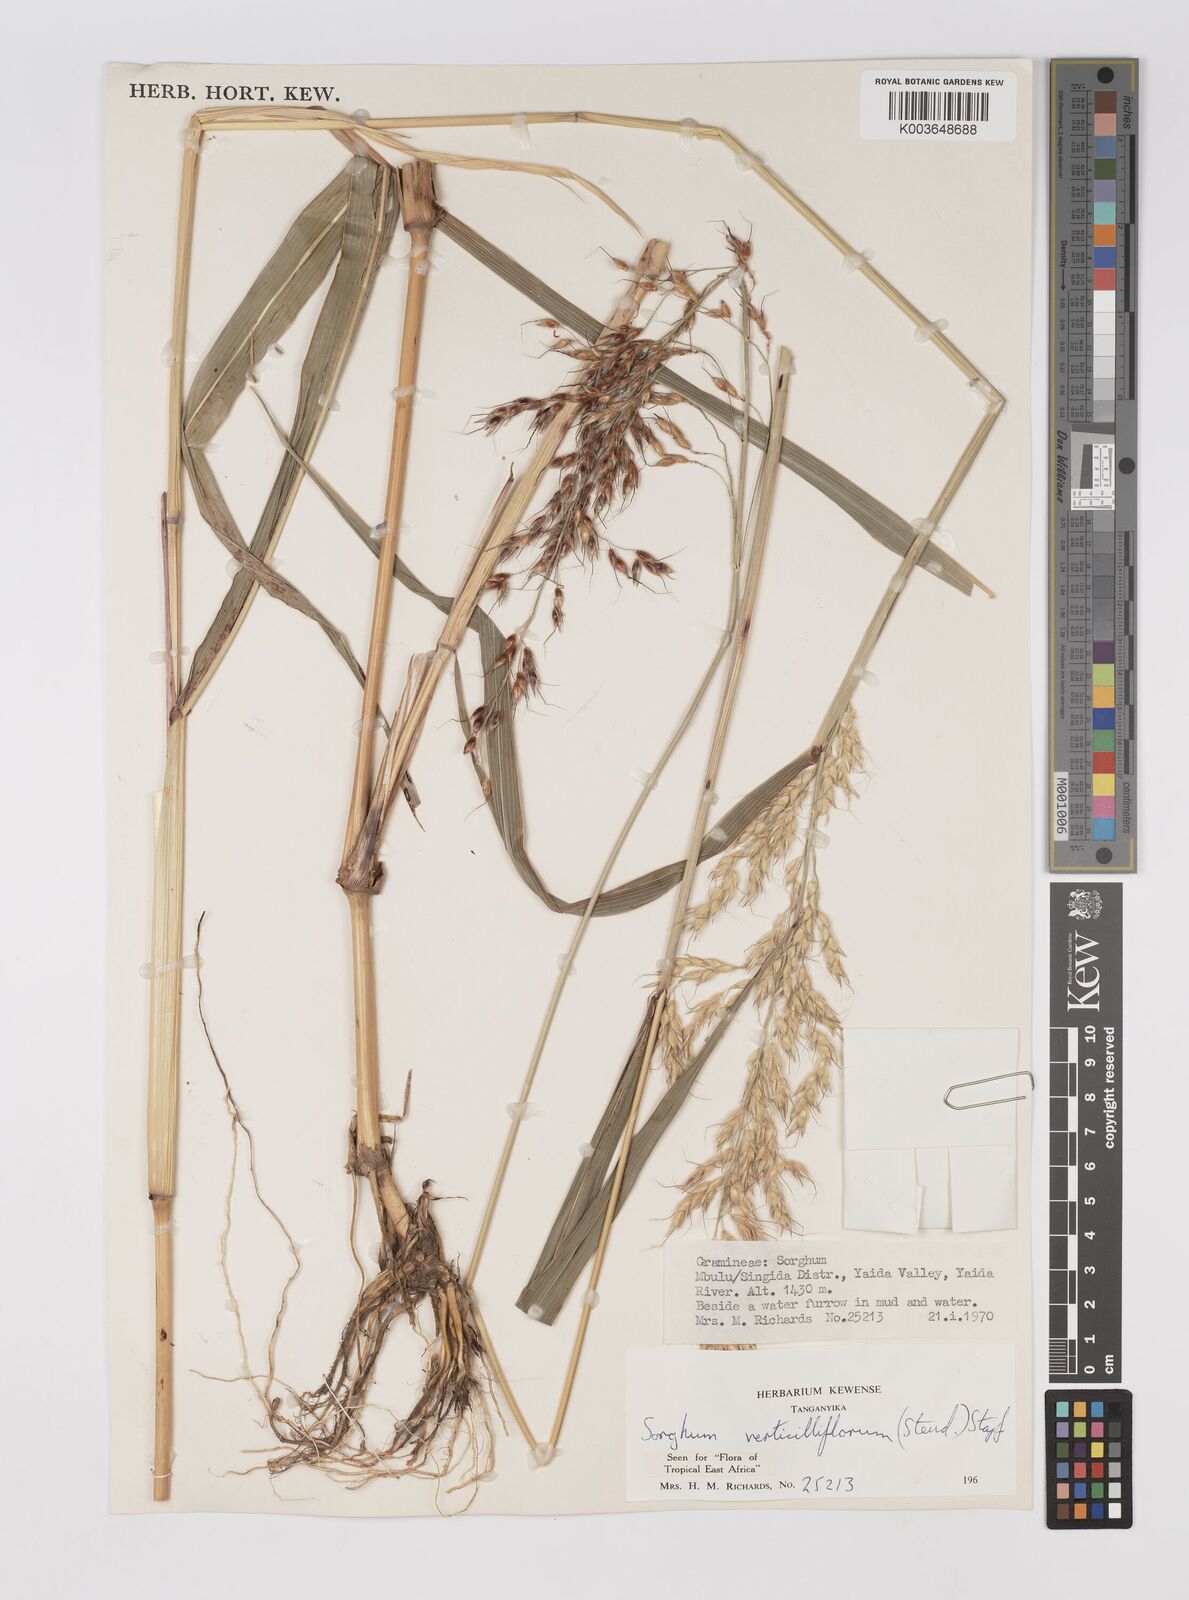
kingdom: Plantae
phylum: Tracheophyta
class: Liliopsida
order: Poales
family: Poaceae
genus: Sorghum
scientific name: Sorghum arundinaceum
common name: Sorghum
